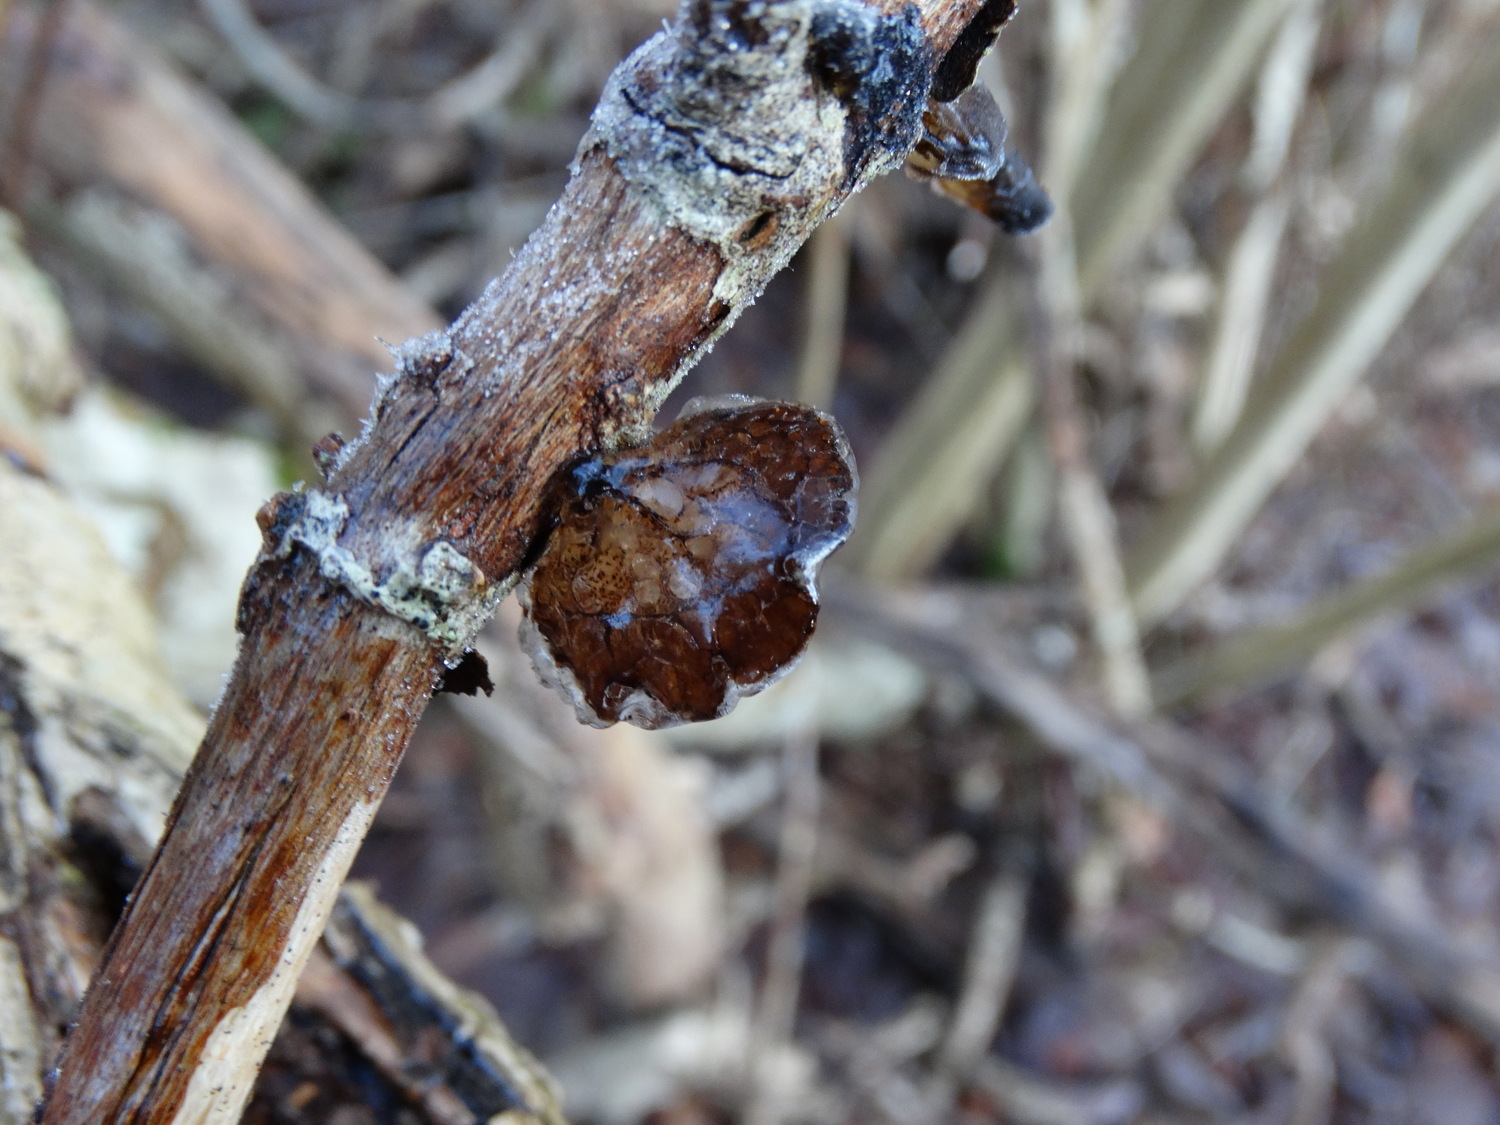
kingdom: Fungi
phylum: Basidiomycota
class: Agaricomycetes
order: Auriculariales
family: Auriculariaceae
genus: Exidia
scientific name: Exidia recisa
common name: pile-bævretop
